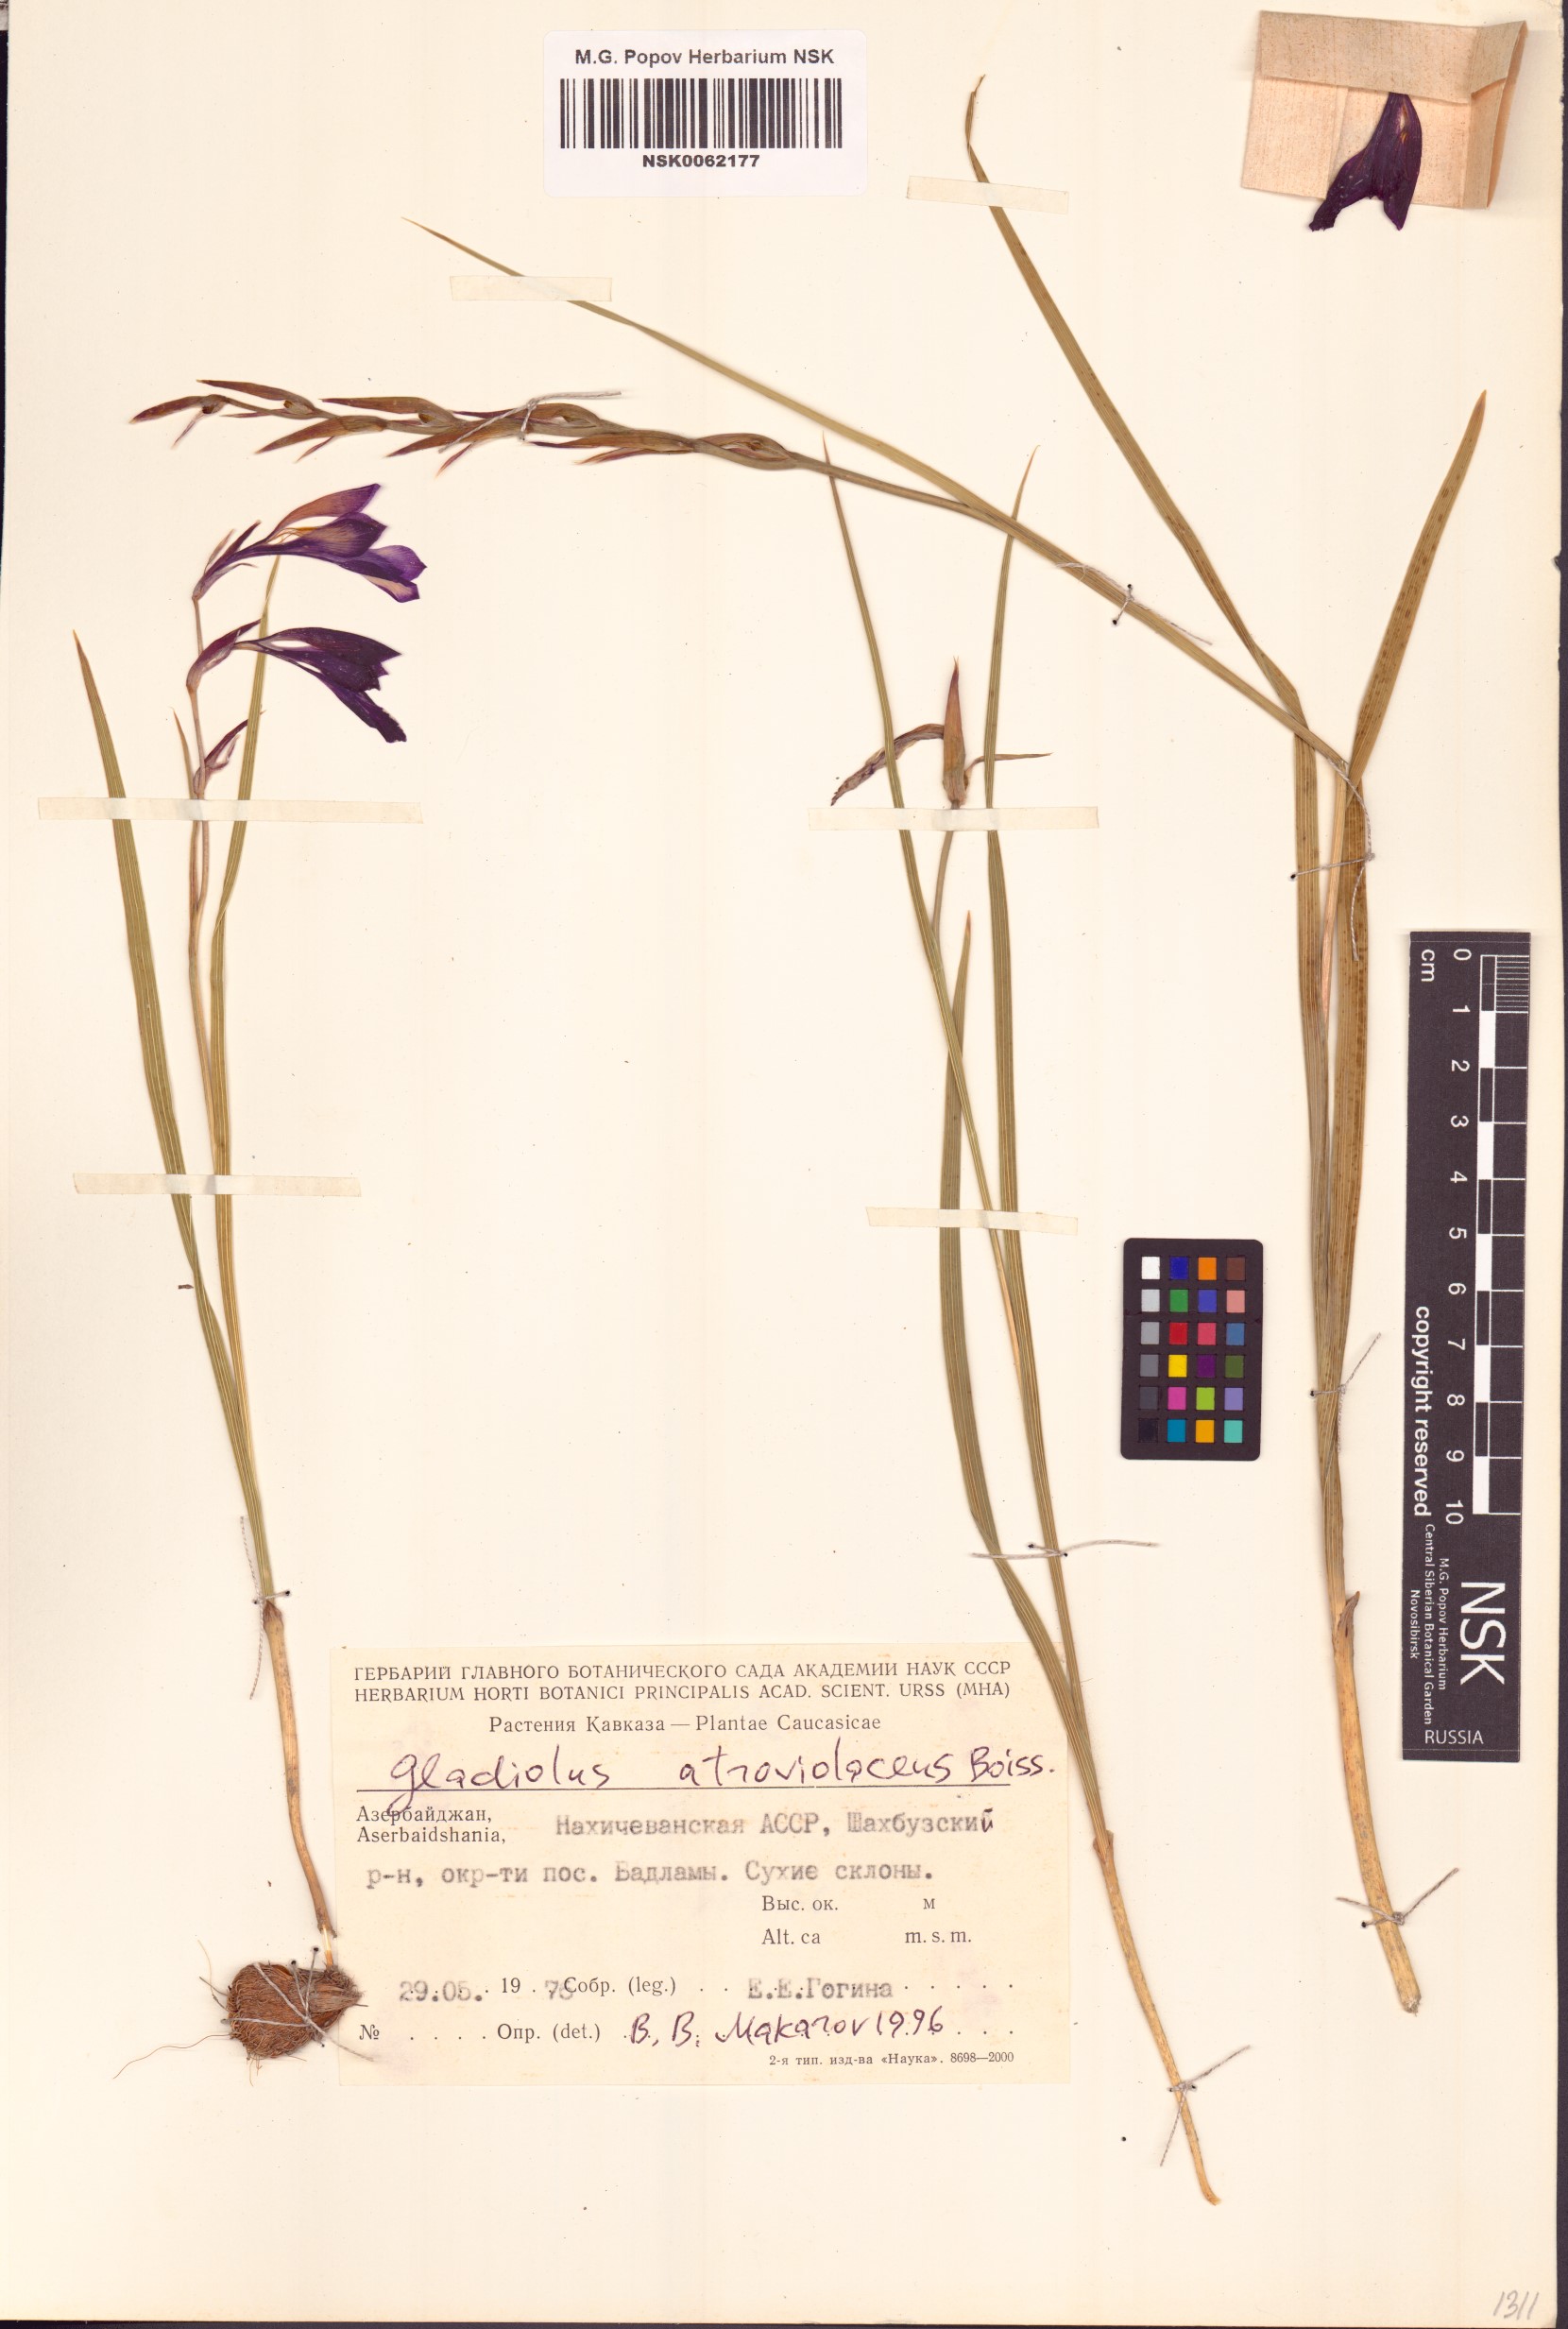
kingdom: Plantae
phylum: Tracheophyta
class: Liliopsida
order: Asparagales
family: Iridaceae
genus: Gladiolus
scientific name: Gladiolus atroviolaceus
